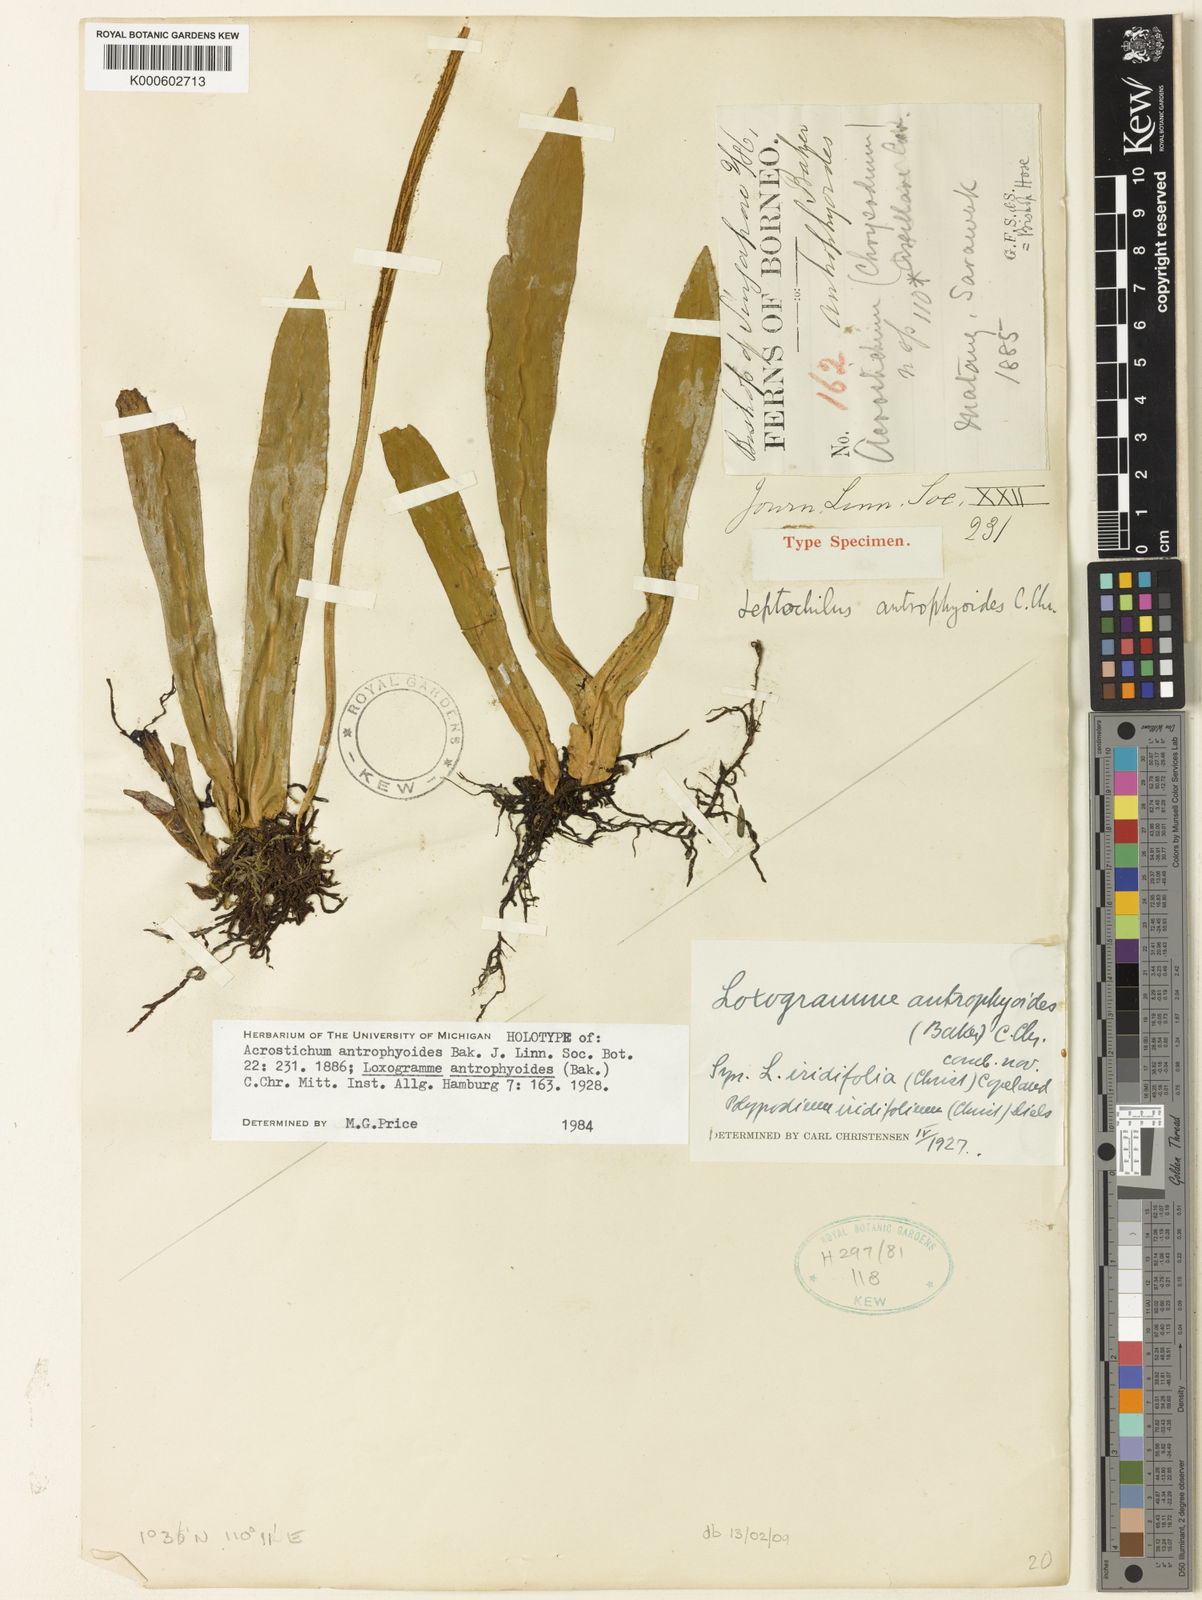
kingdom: Plantae
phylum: Tracheophyta
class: Polypodiopsida
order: Polypodiales
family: Polypodiaceae
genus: Loxogramme
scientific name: Loxogramme antrophyoides
